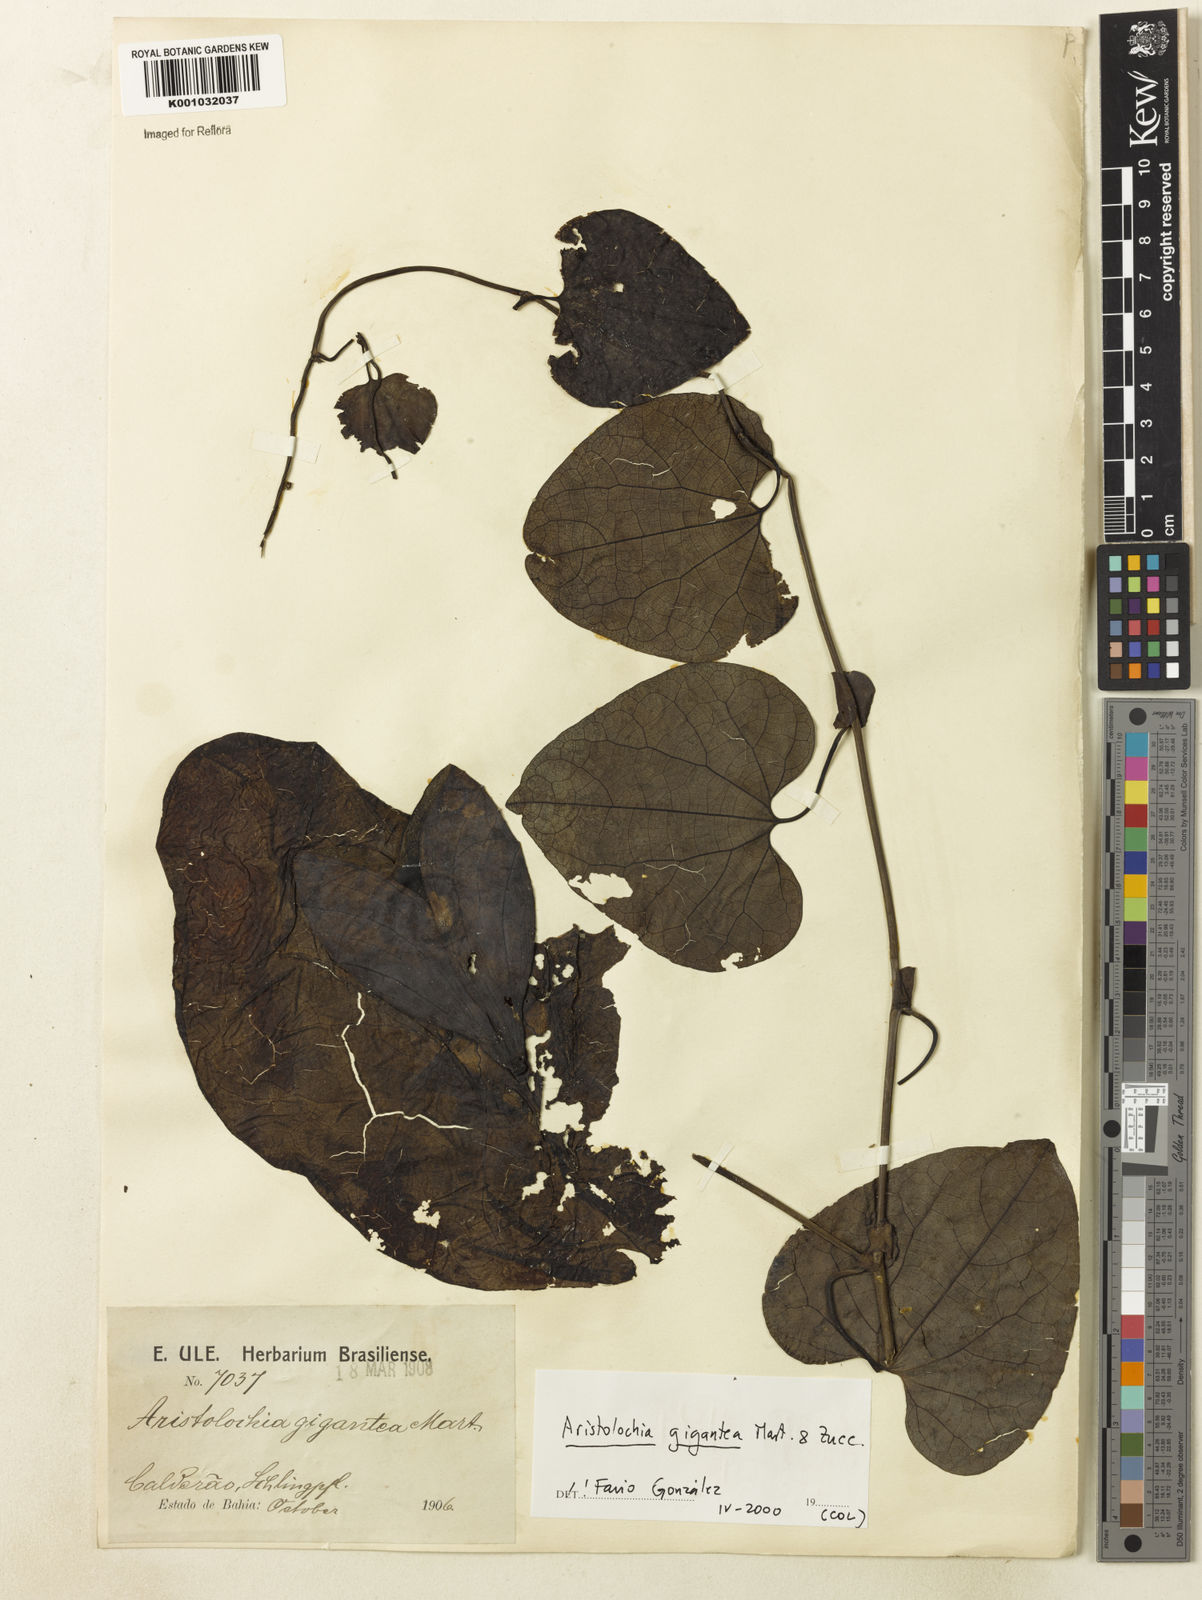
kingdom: Plantae
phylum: Tracheophyta
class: Magnoliopsida
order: Piperales
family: Aristolochiaceae
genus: Aristolochia
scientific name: Aristolochia gigantea
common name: Duckflower
